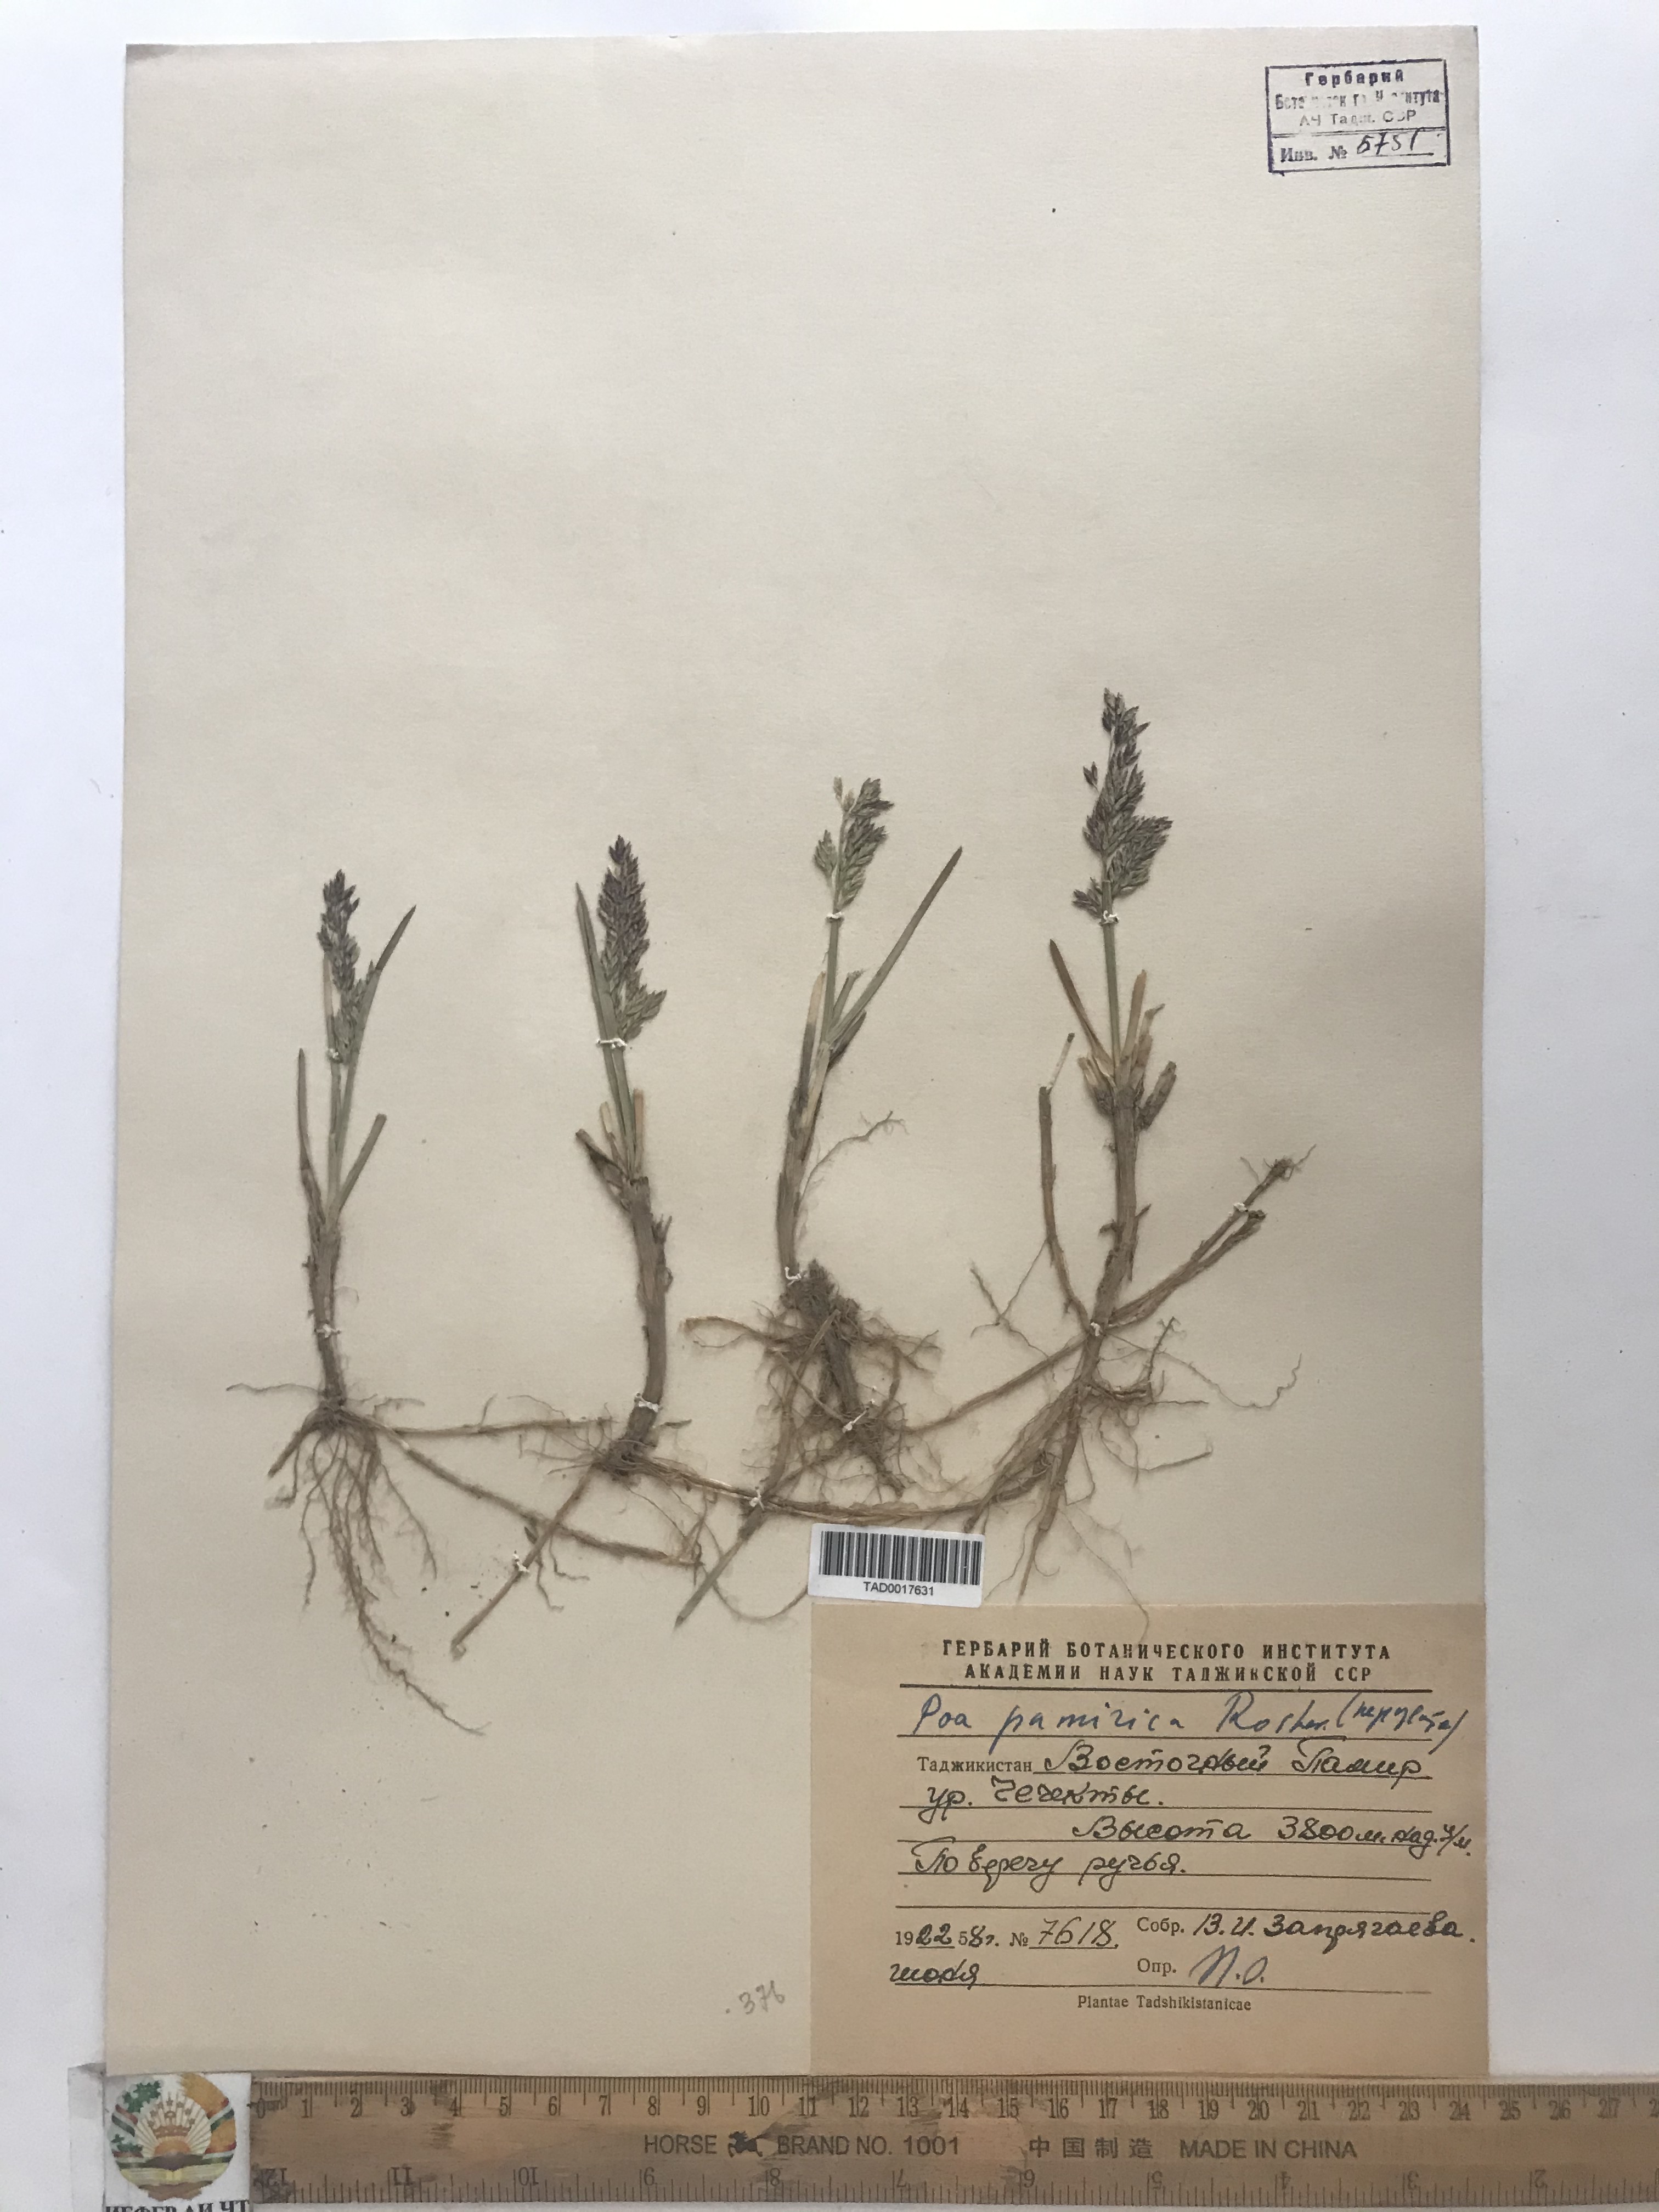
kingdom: Plantae
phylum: Tracheophyta
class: Liliopsida
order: Poales
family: Poaceae
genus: Poa
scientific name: Poa tianschanica
